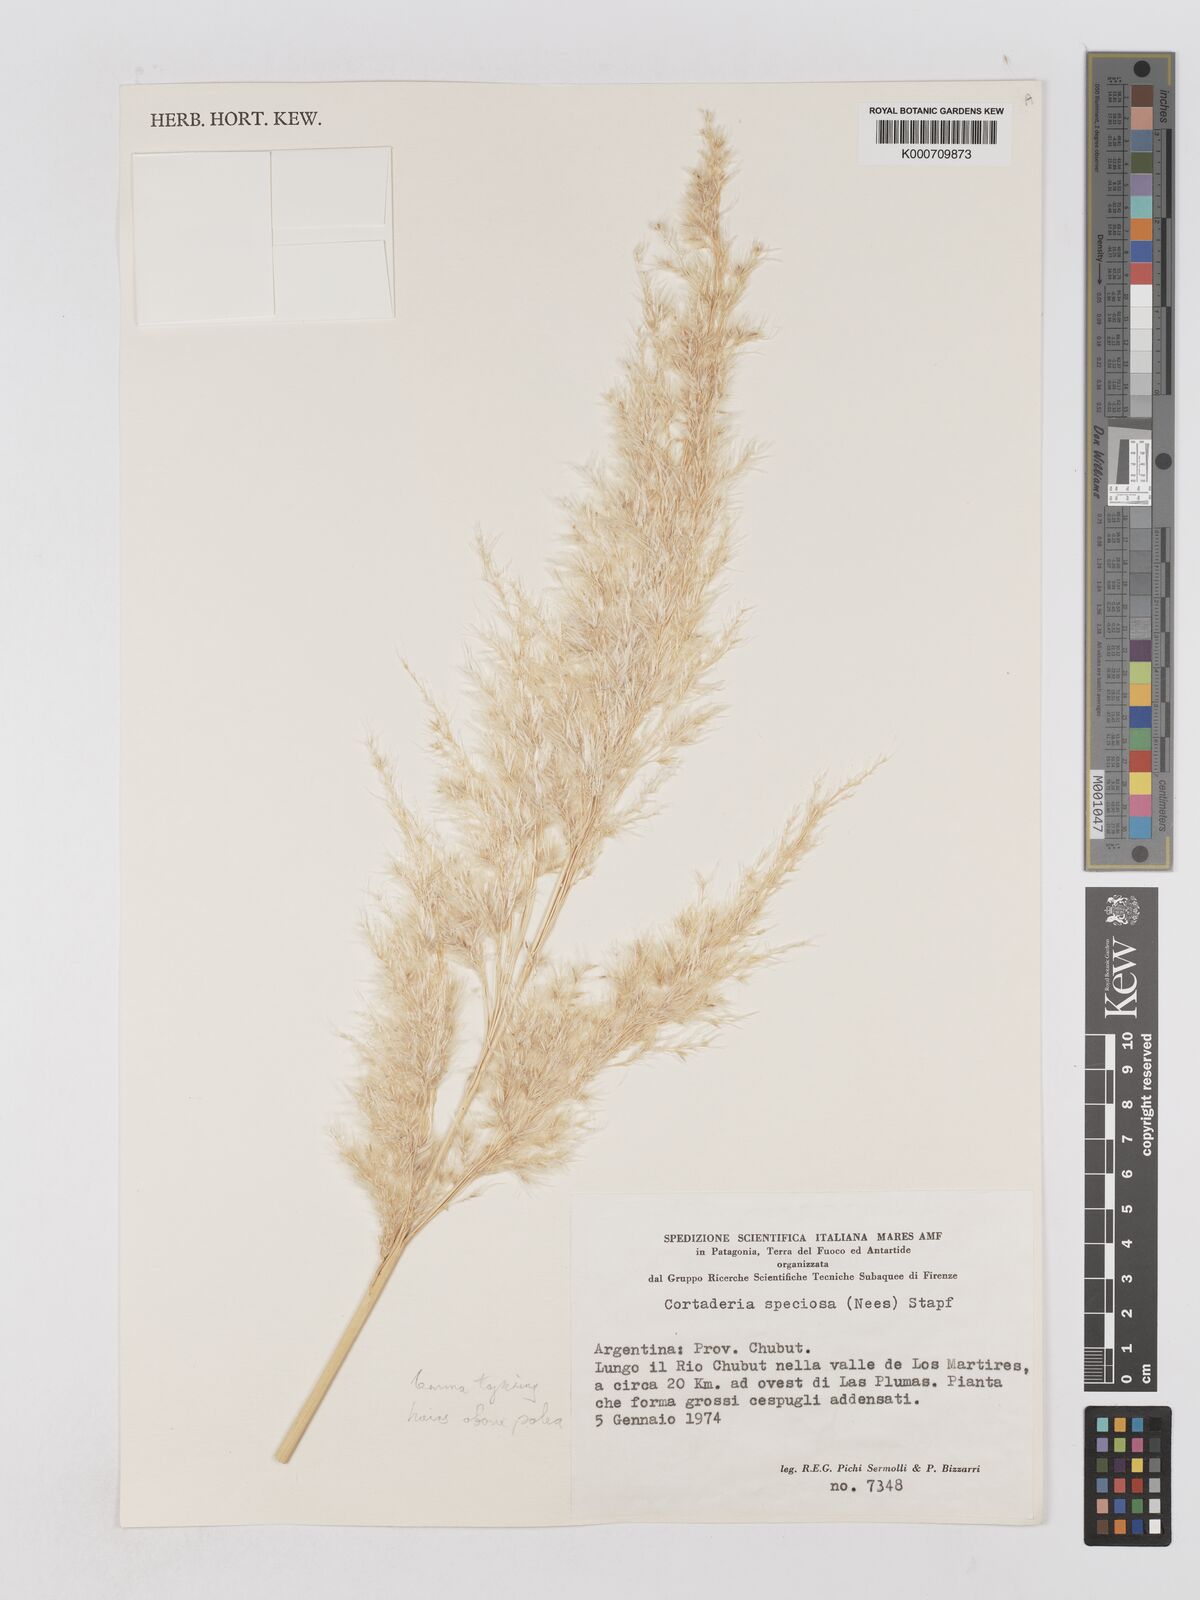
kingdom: Plantae
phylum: Tracheophyta
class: Liliopsida
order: Poales
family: Poaceae
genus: Cortaderia
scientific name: Cortaderia speciosa
